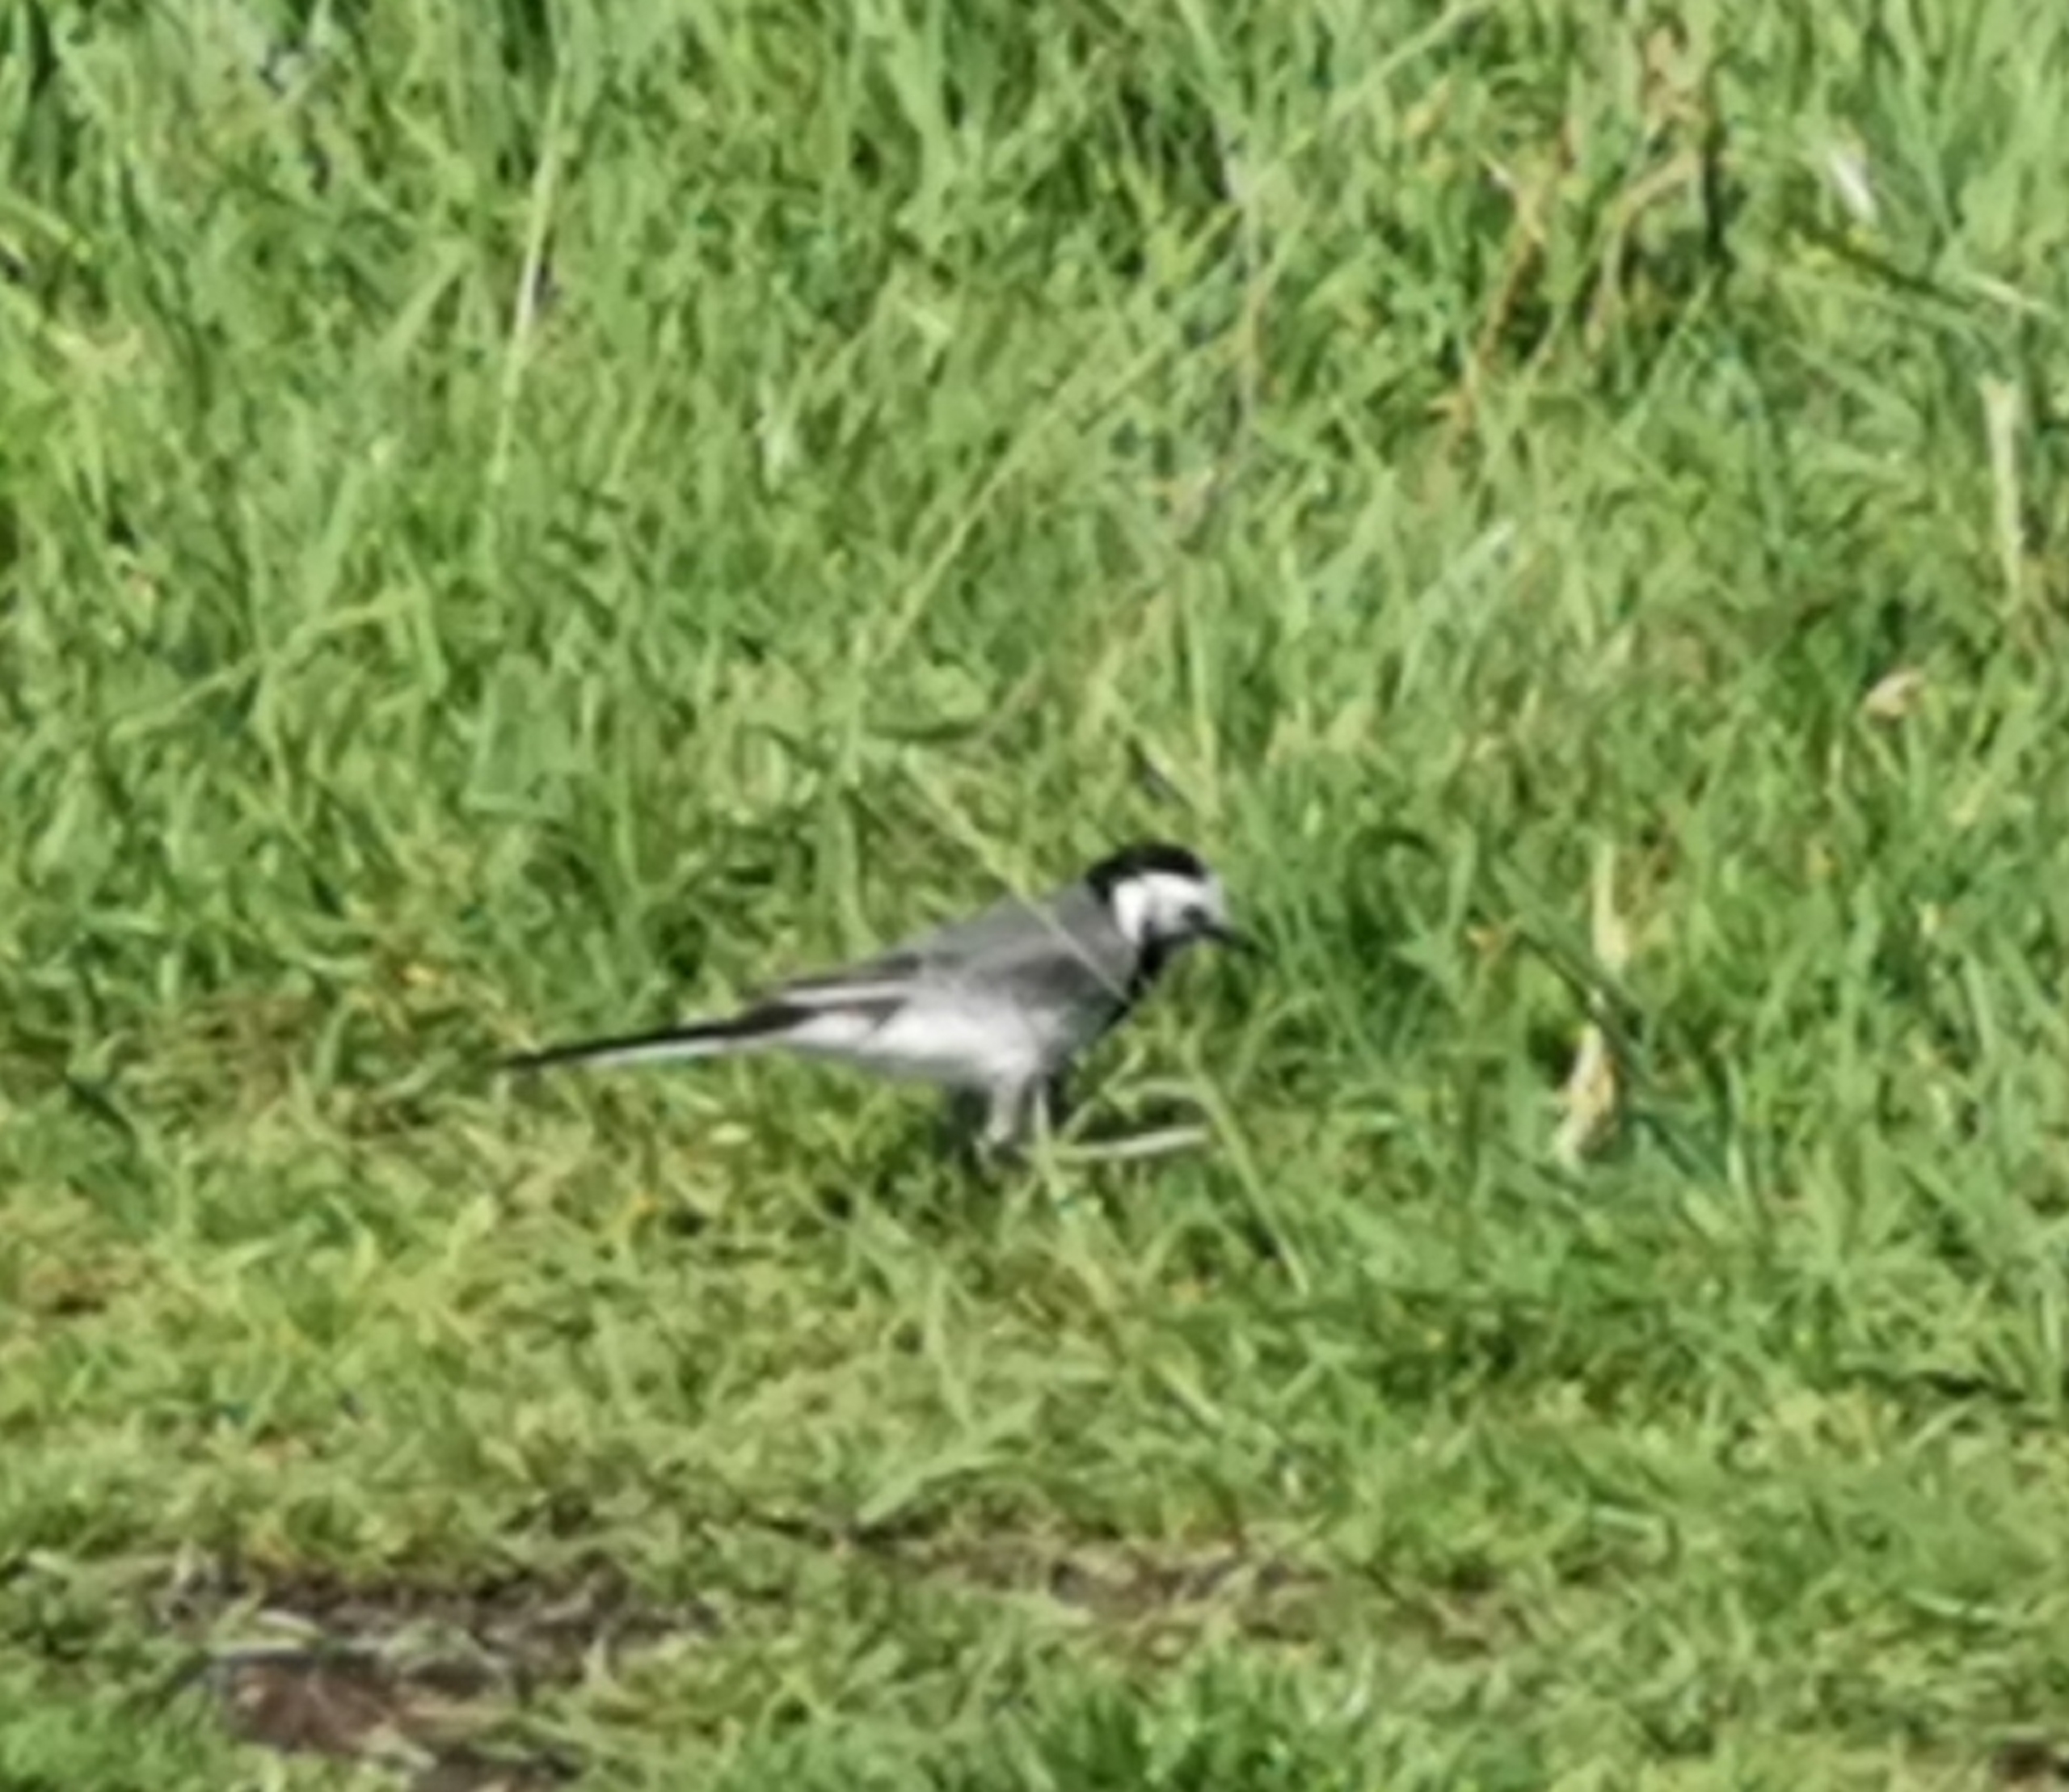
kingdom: Animalia
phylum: Chordata
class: Aves
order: Passeriformes
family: Motacillidae
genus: Motacilla
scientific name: Motacilla alba
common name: Hvid vipstjert
